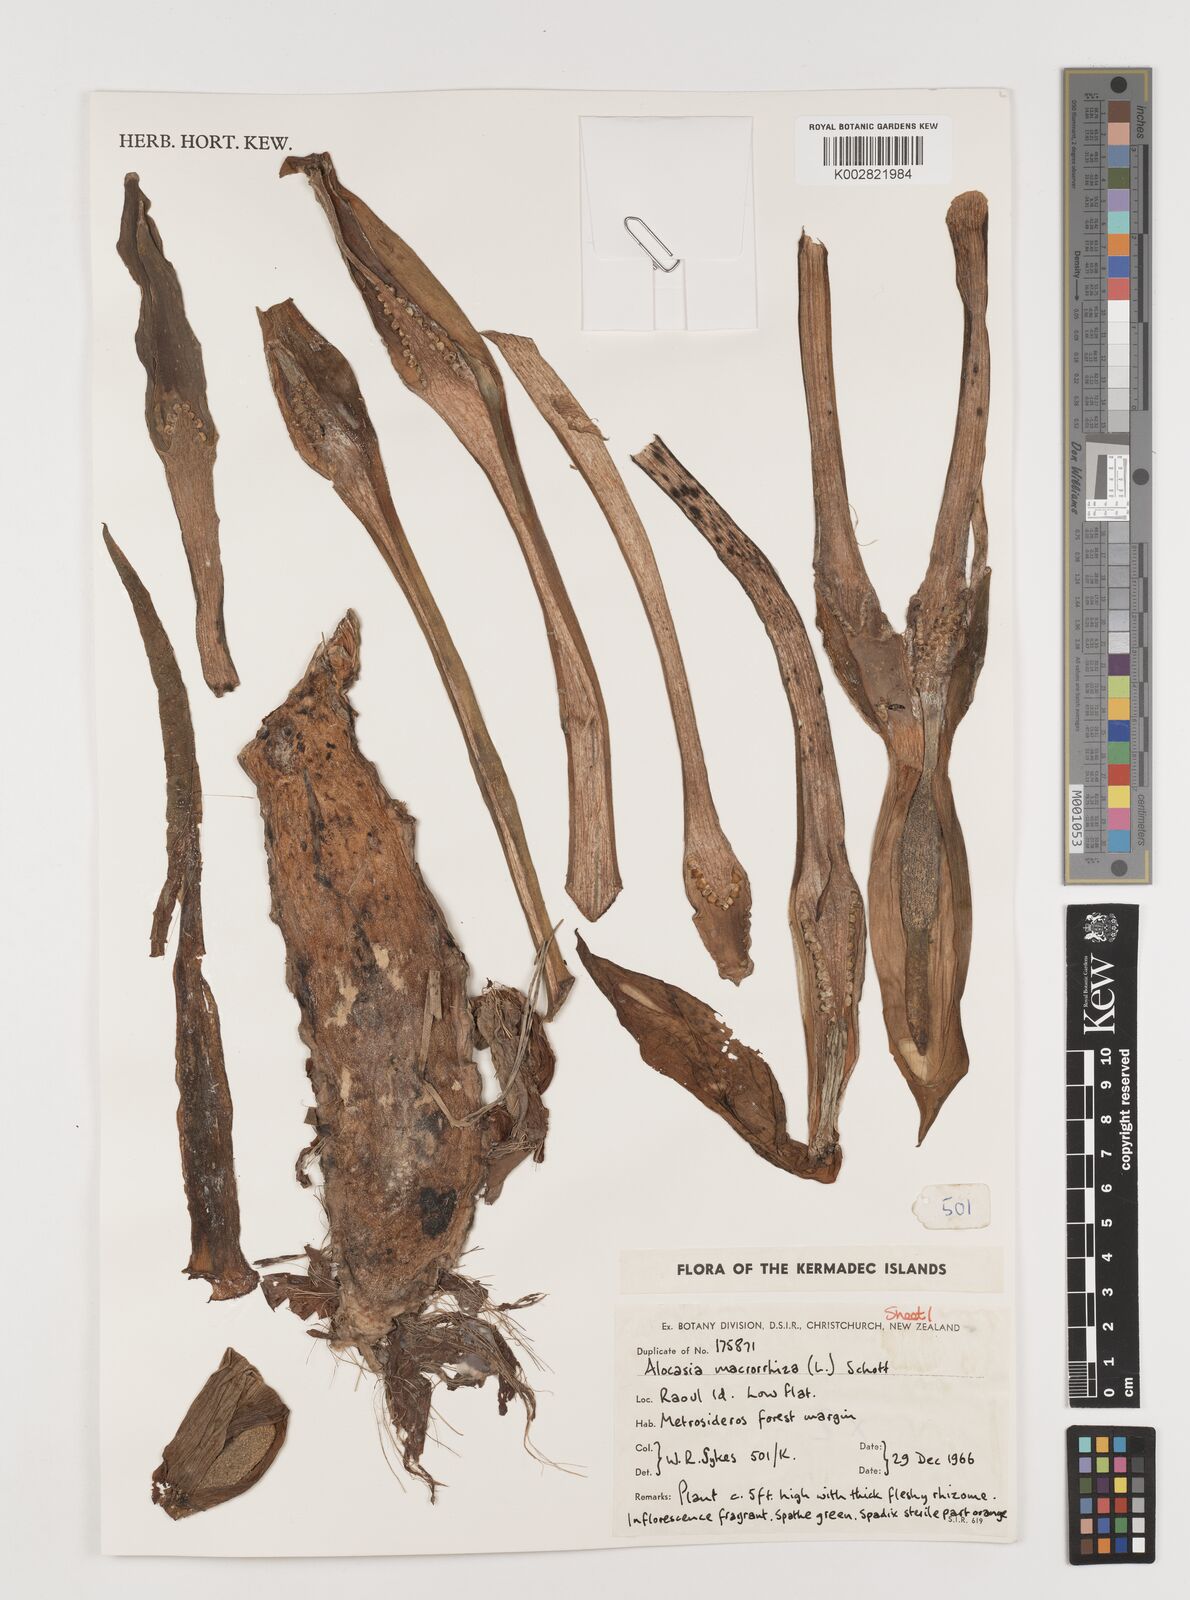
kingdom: Plantae
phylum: Tracheophyta
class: Liliopsida
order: Alismatales
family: Araceae
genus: Alocasia
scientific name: Alocasia macrorrhizos
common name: Giant taro
